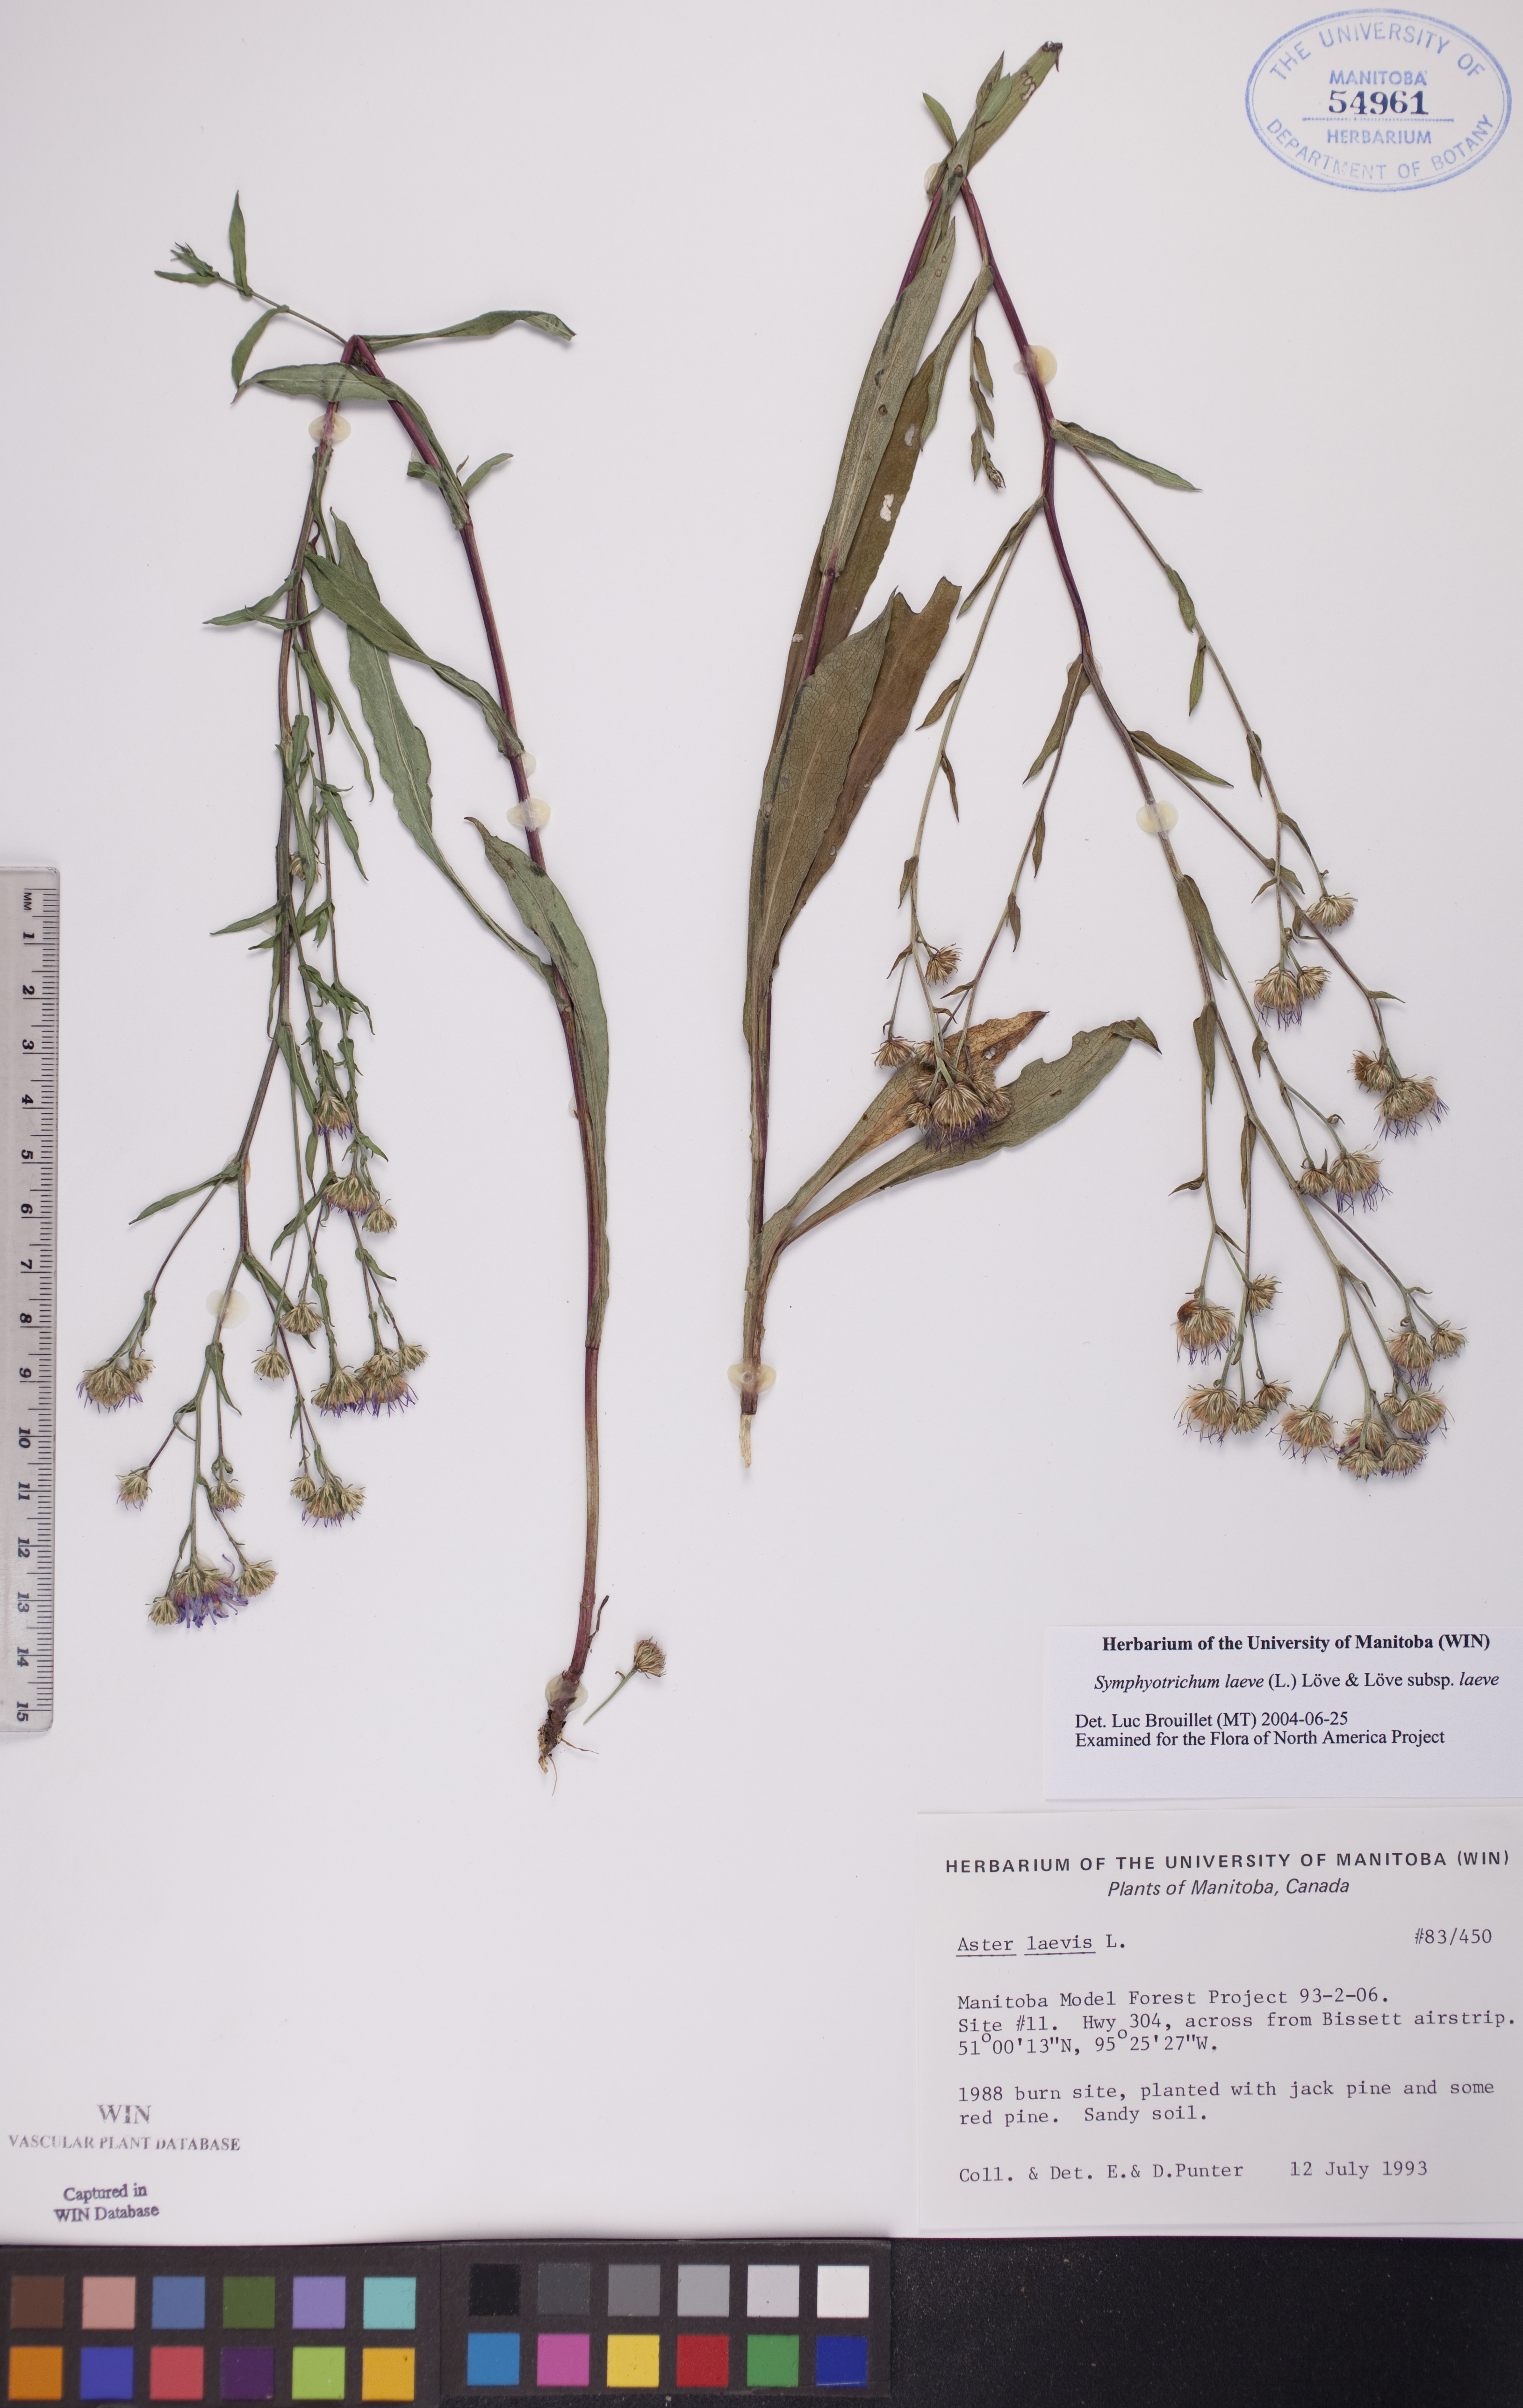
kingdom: Plantae
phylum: Tracheophyta
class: Magnoliopsida
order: Asterales
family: Asteraceae
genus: Symphyotrichum
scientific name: Symphyotrichum laeve
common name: Glaucous aster
